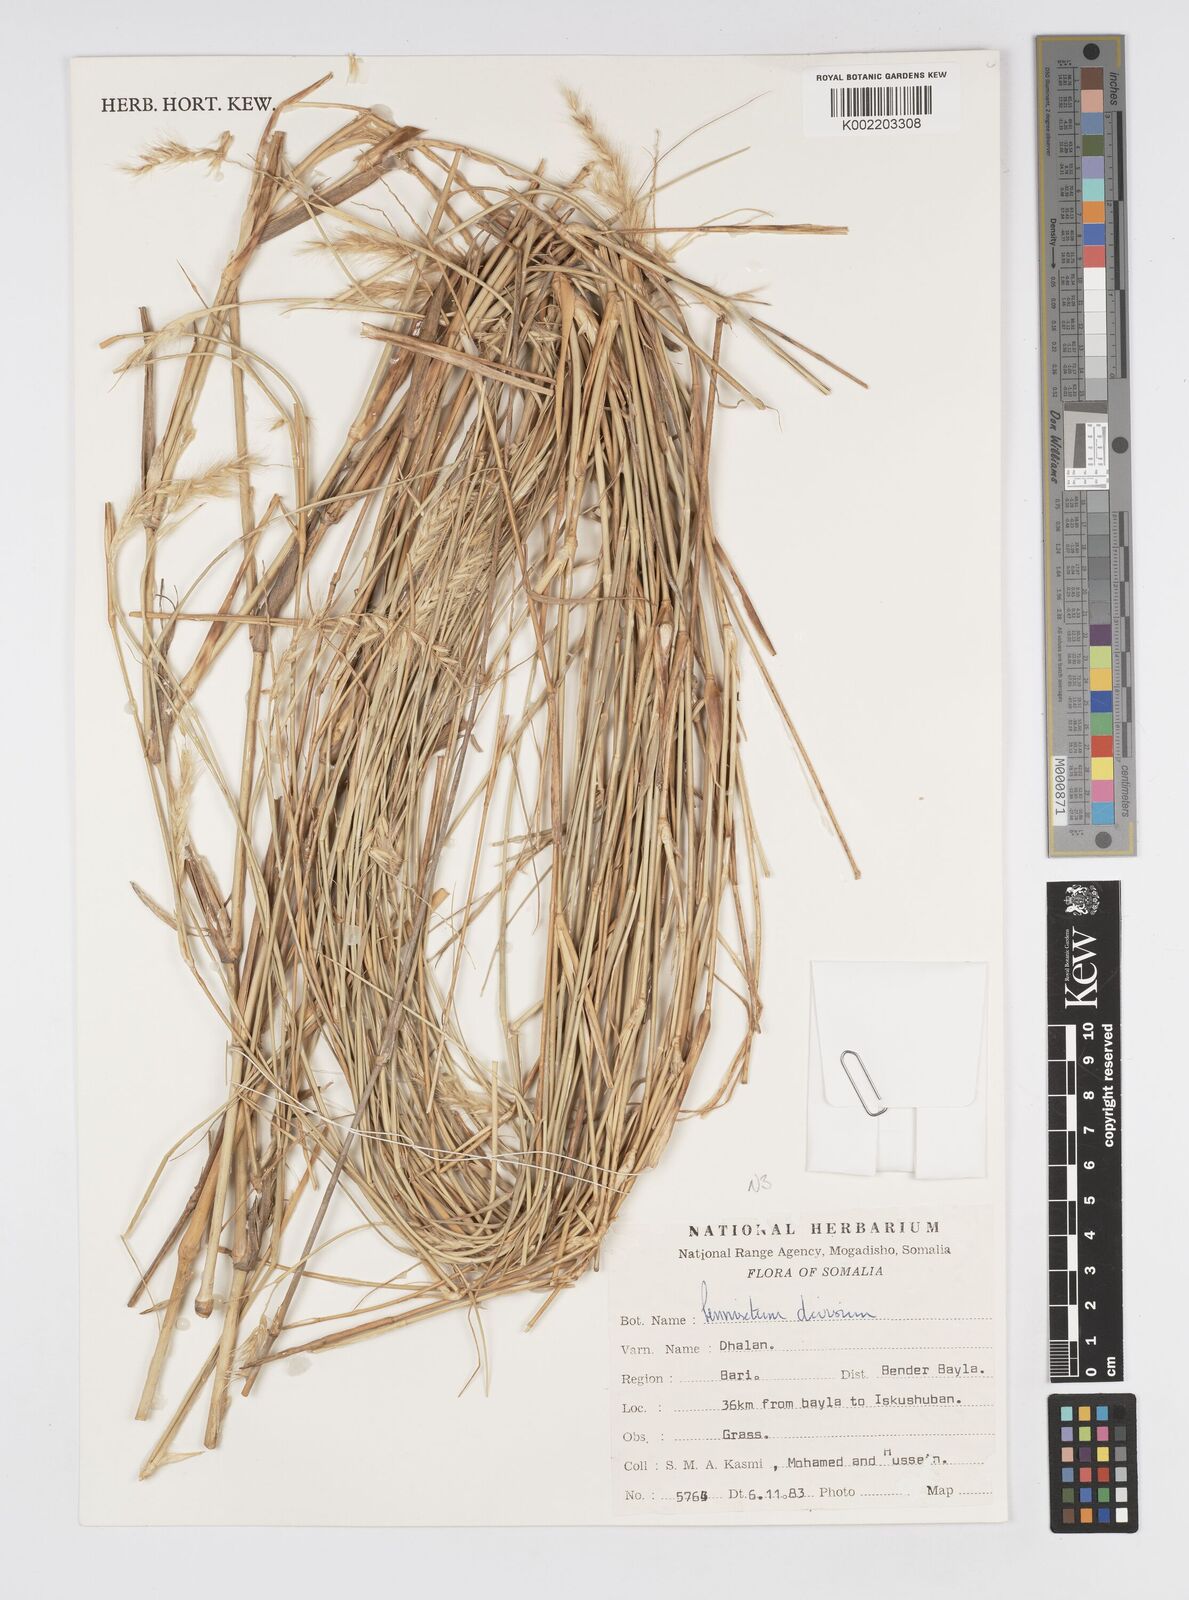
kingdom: Plantae
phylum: Tracheophyta
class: Liliopsida
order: Poales
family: Poaceae
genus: Cenchrus
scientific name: Cenchrus divisus
